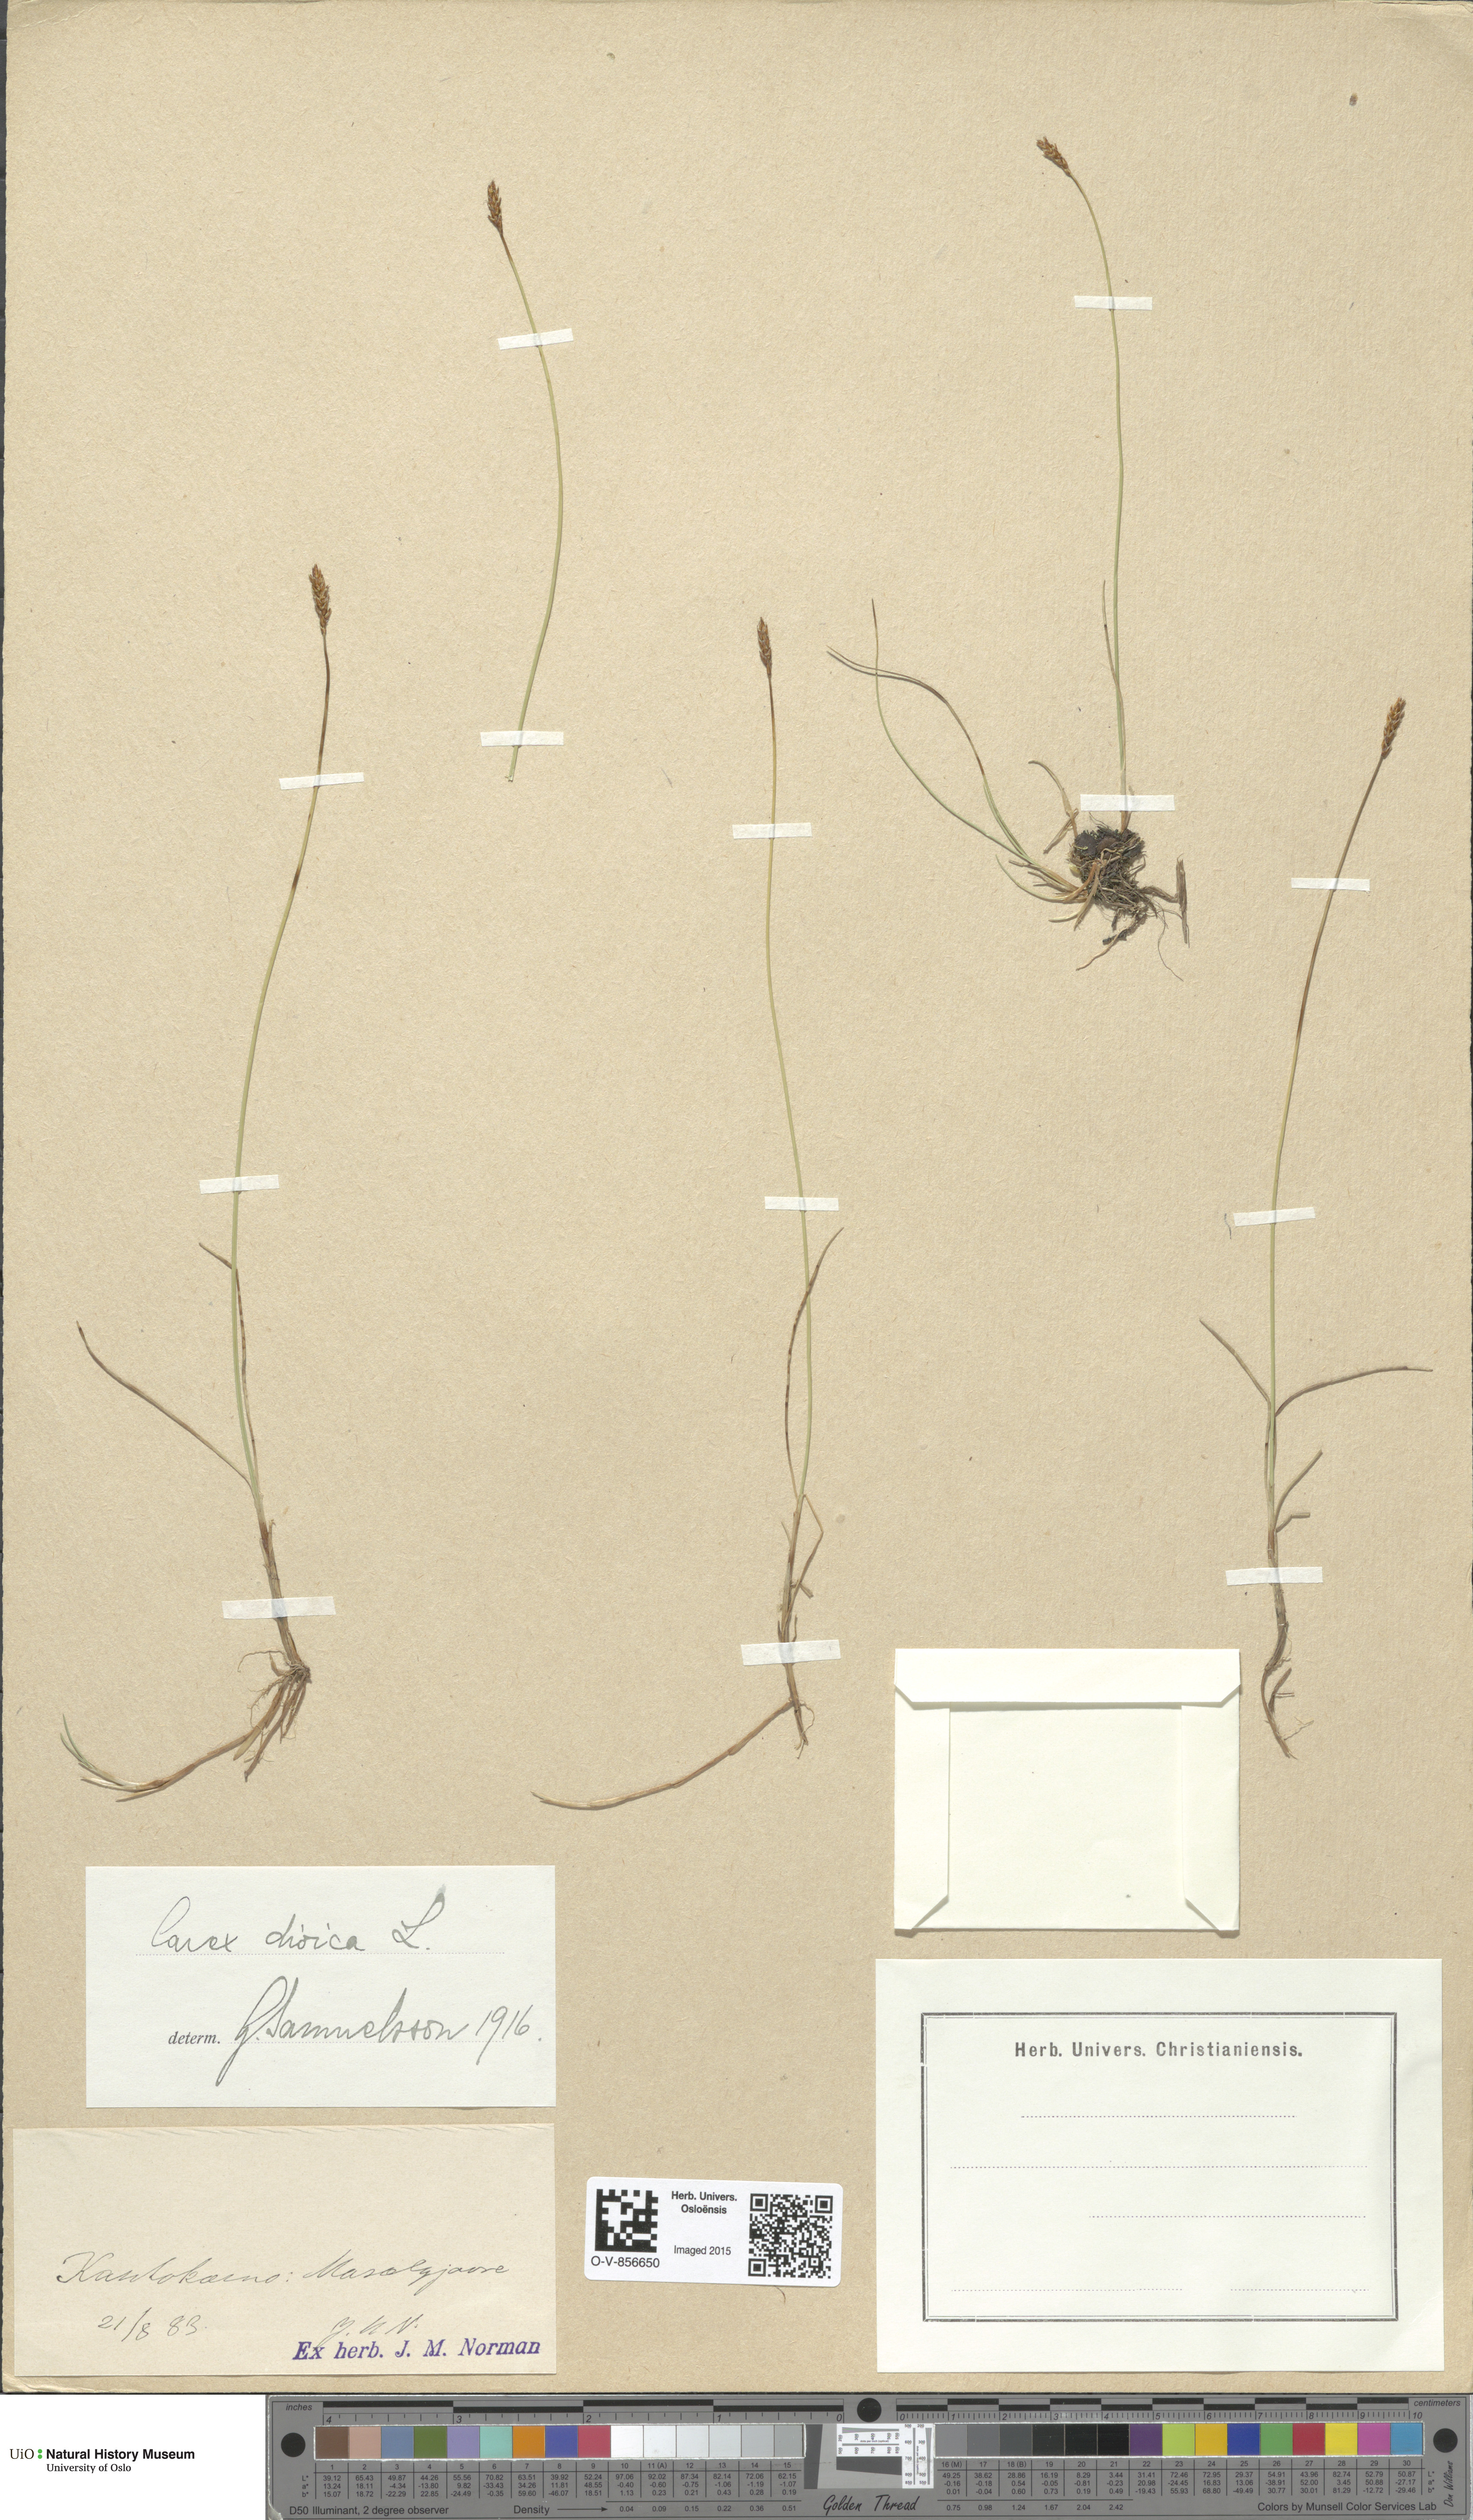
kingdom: Plantae
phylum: Tracheophyta
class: Liliopsida
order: Poales
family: Cyperaceae
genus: Carex
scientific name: Carex dioica
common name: Dioecious sedge
